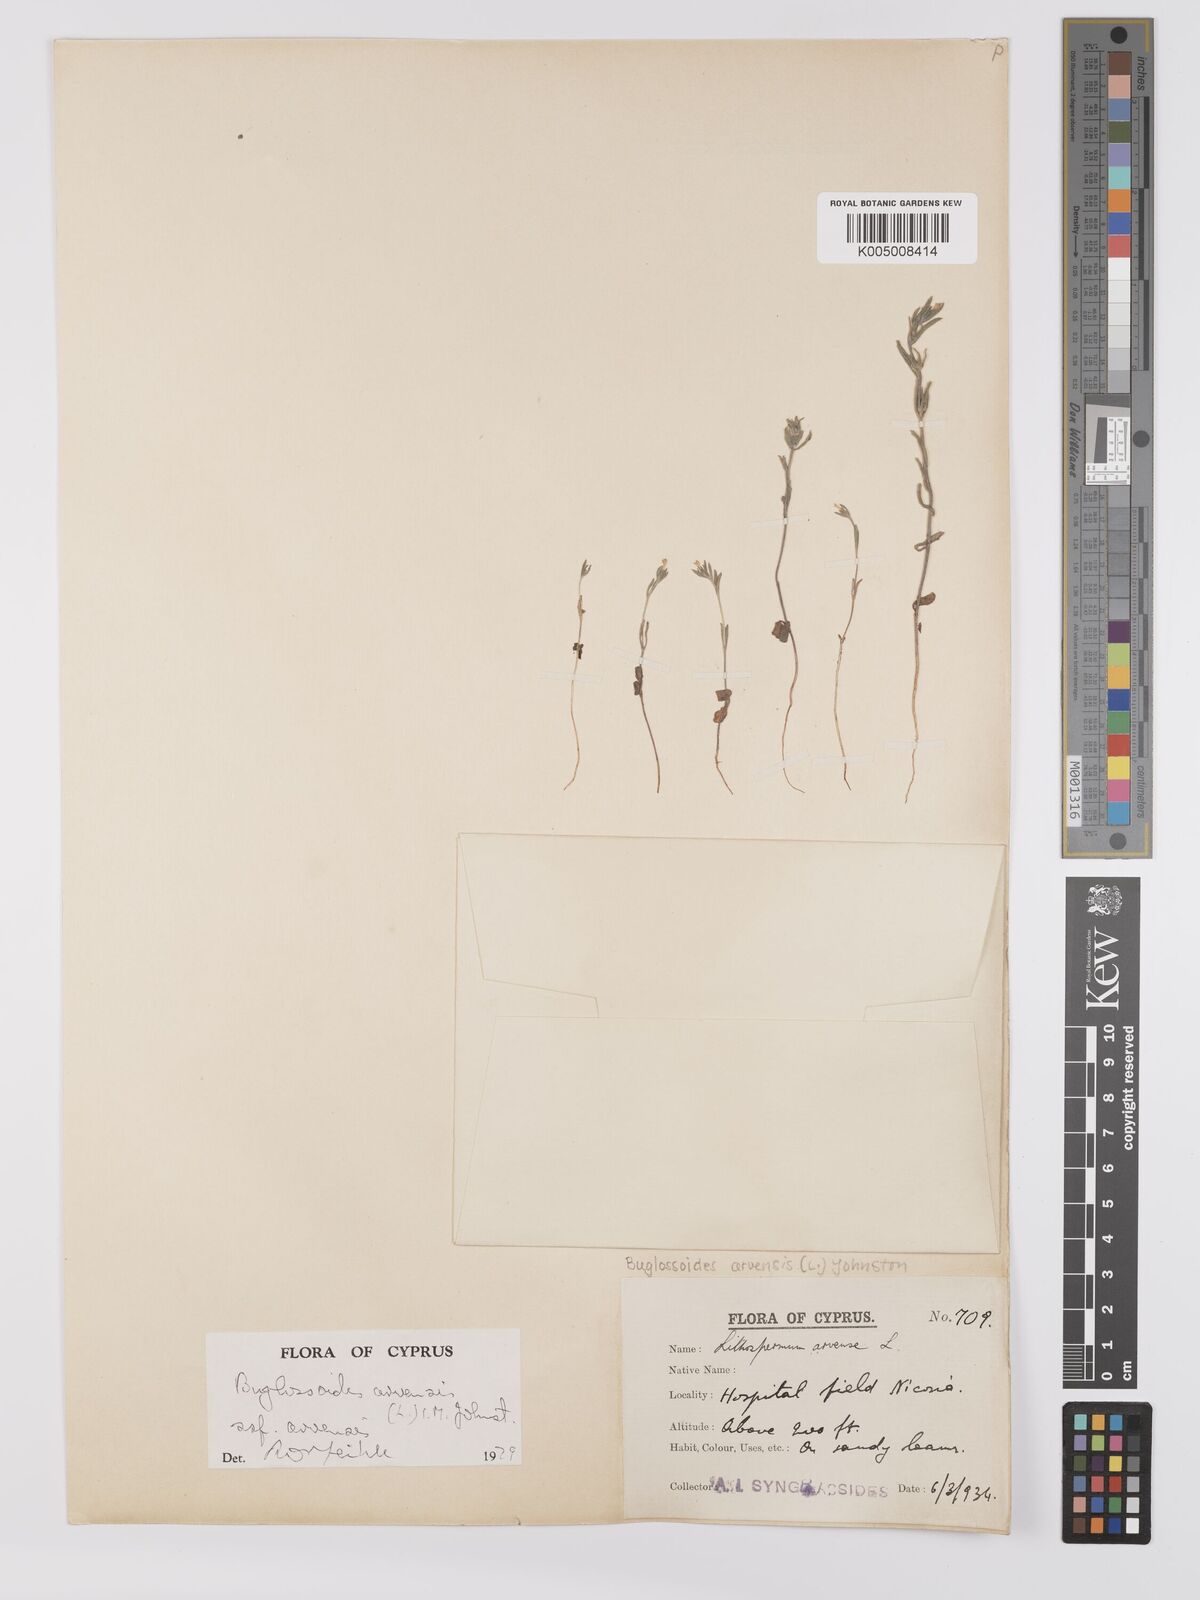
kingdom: Plantae
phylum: Tracheophyta
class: Magnoliopsida
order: Boraginales
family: Boraginaceae
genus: Buglossoides
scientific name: Buglossoides arvensis
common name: Corn gromwell
